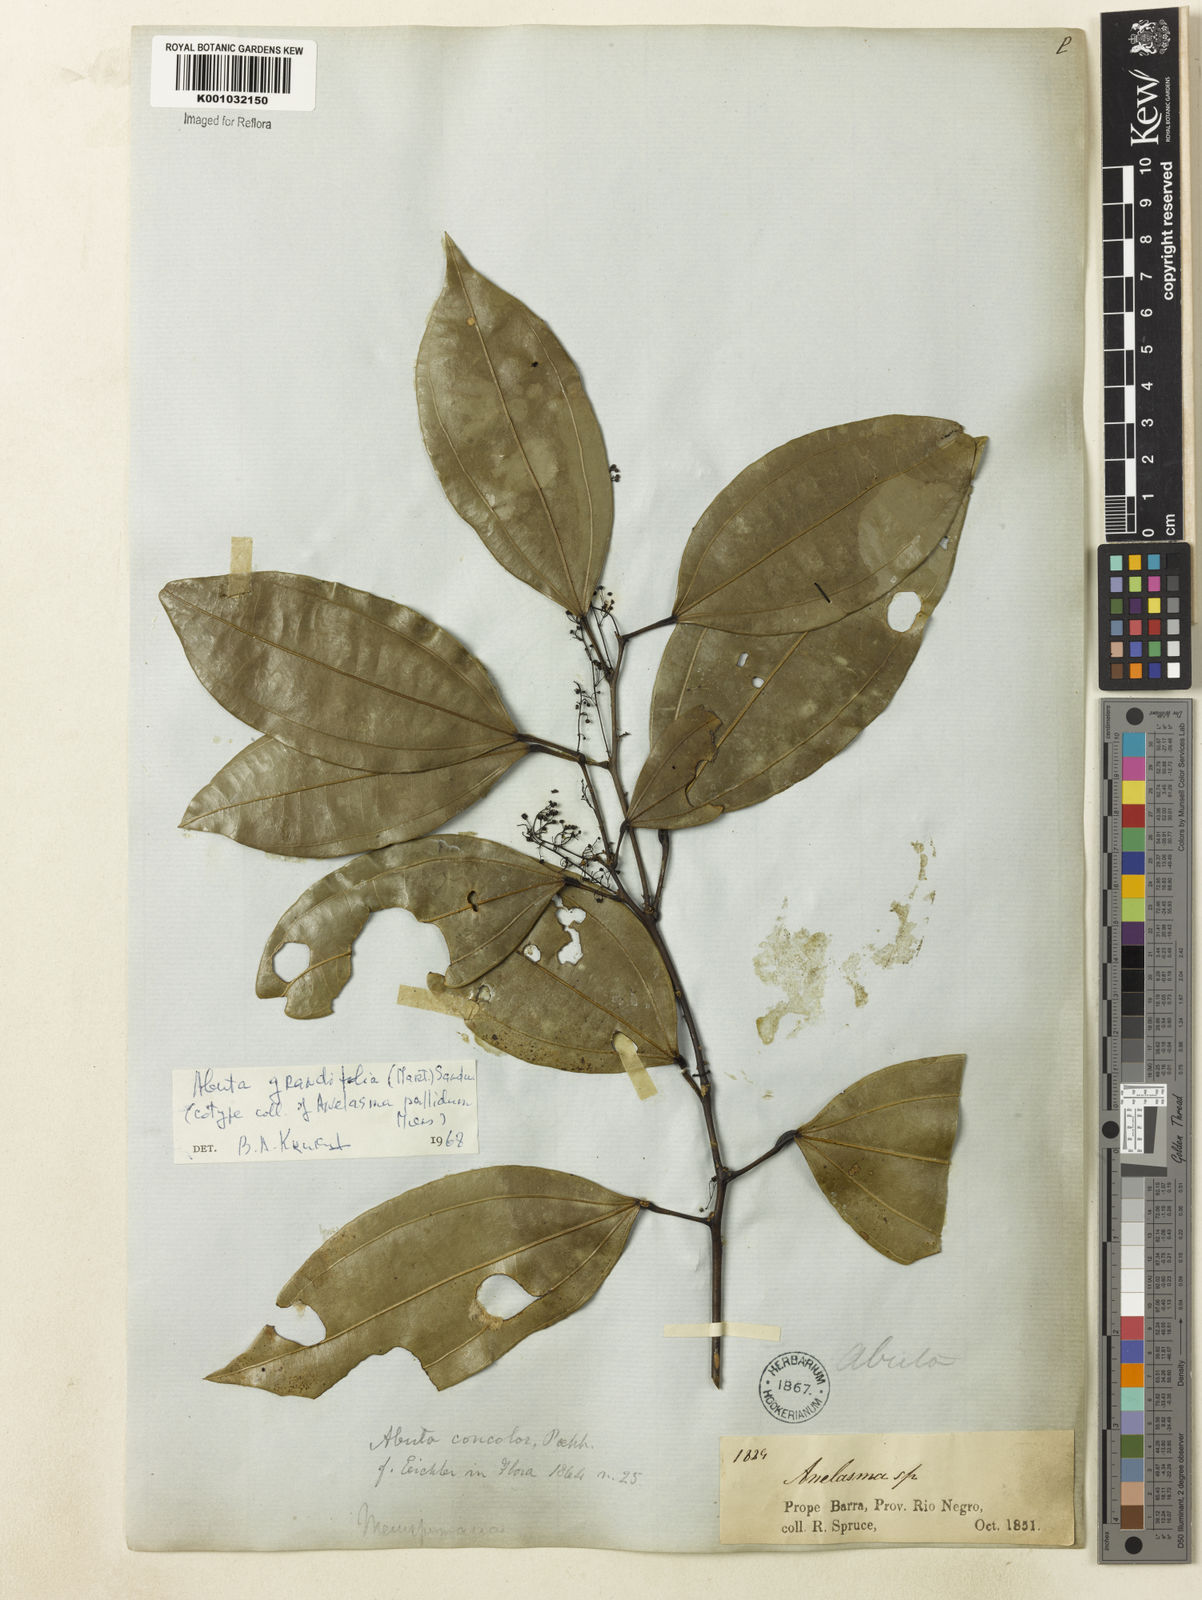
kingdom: Plantae
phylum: Tracheophyta
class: Magnoliopsida
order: Ranunculales
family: Menispermaceae
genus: Abuta
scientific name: Abuta grandifolia
